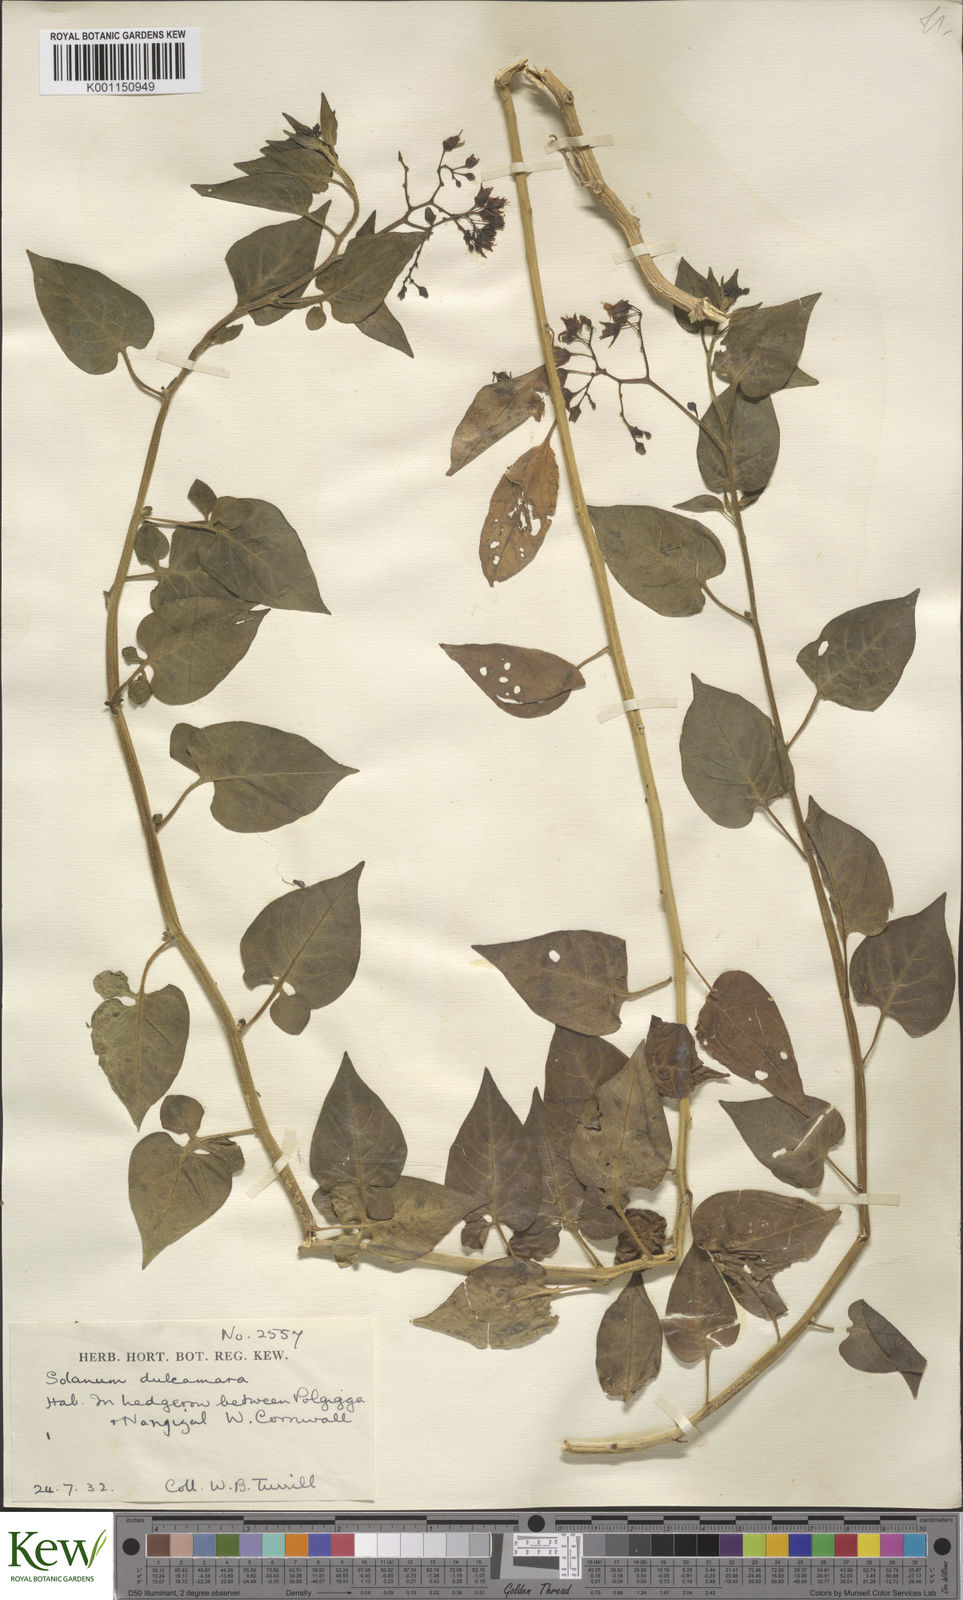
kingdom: Plantae
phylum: Tracheophyta
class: Magnoliopsida
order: Solanales
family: Solanaceae
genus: Solanum
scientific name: Solanum dulcamara
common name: Climbing nightshade
